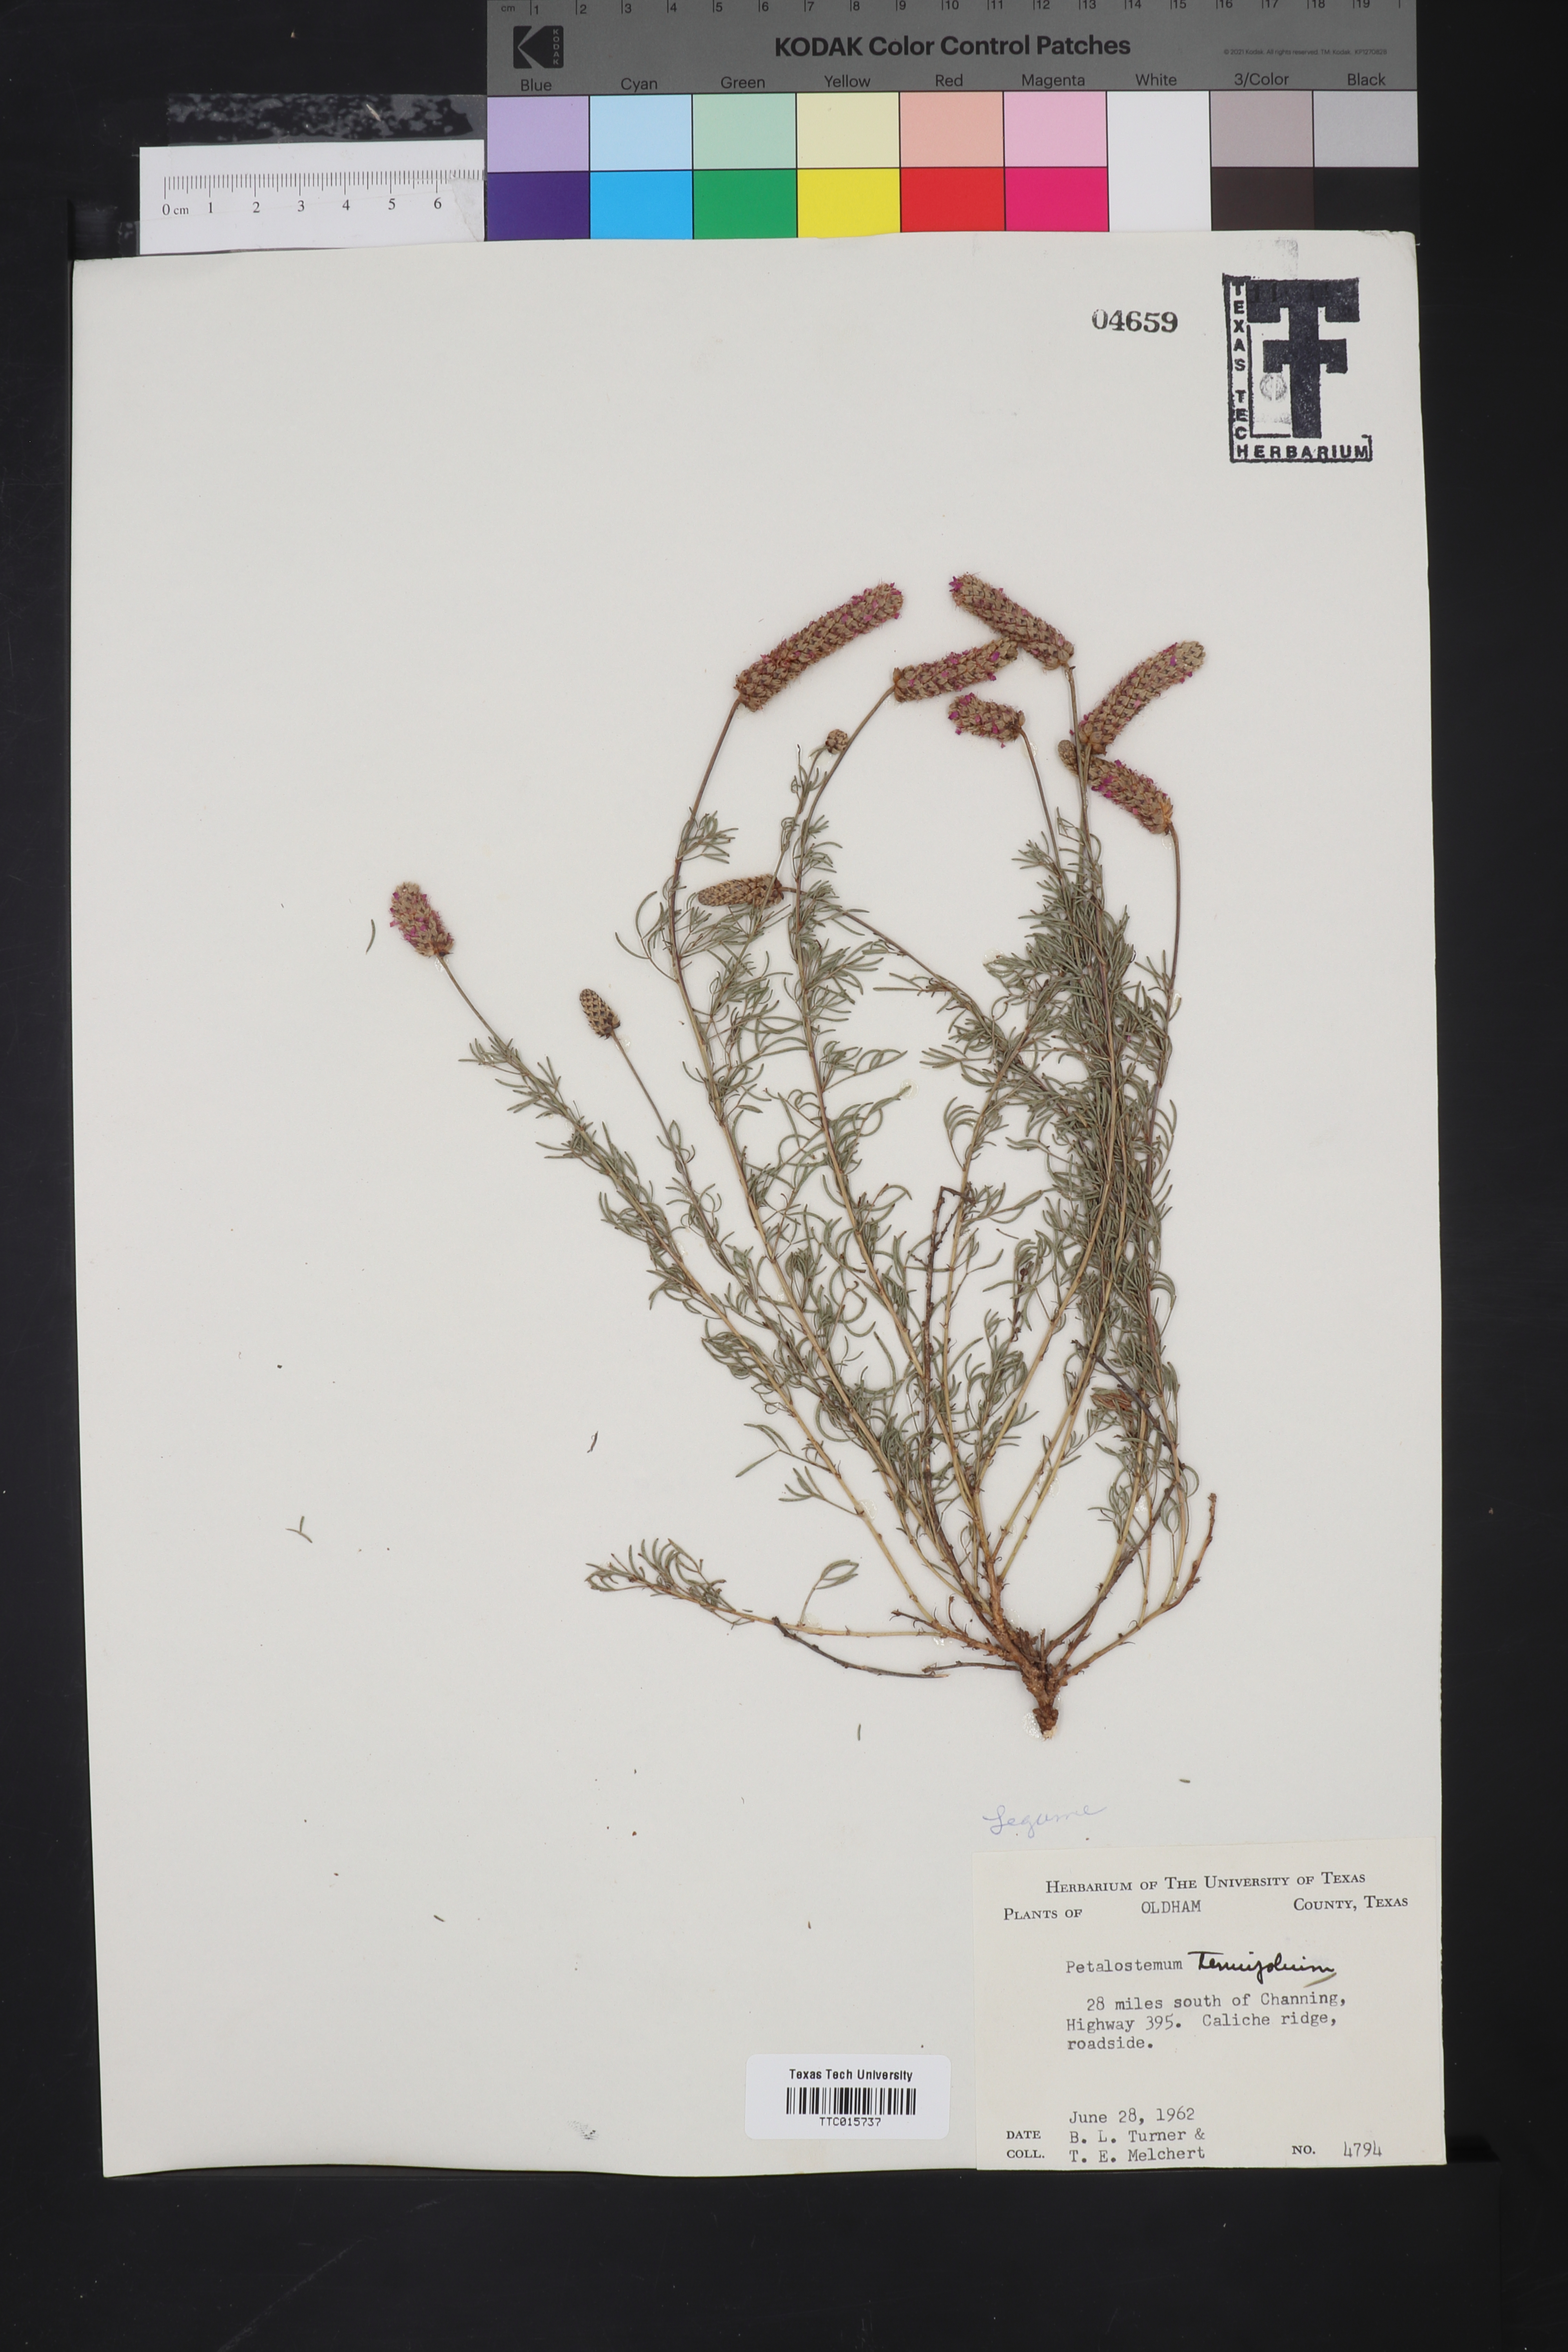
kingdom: Plantae
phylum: Tracheophyta
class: Magnoliopsida
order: Fabales
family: Fabaceae
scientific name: Fabaceae
